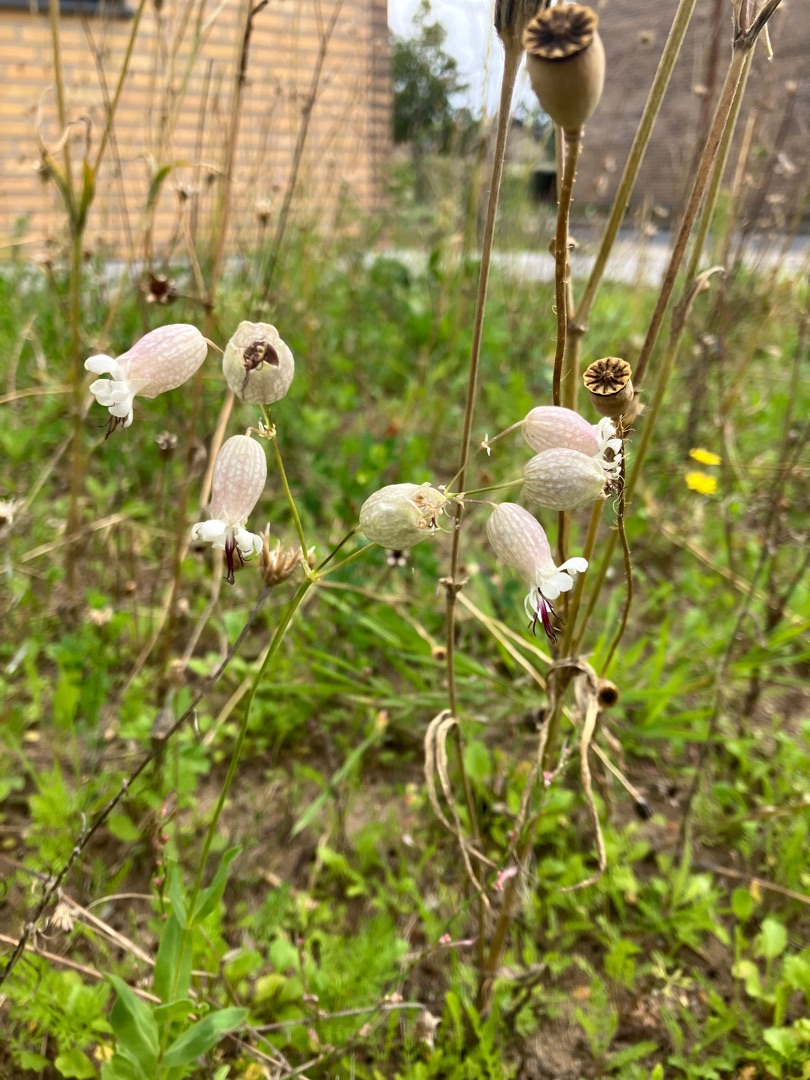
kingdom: Plantae
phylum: Tracheophyta
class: Magnoliopsida
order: Caryophyllales
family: Caryophyllaceae
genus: Silene
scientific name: Silene vulgaris
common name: Blæresmælde
